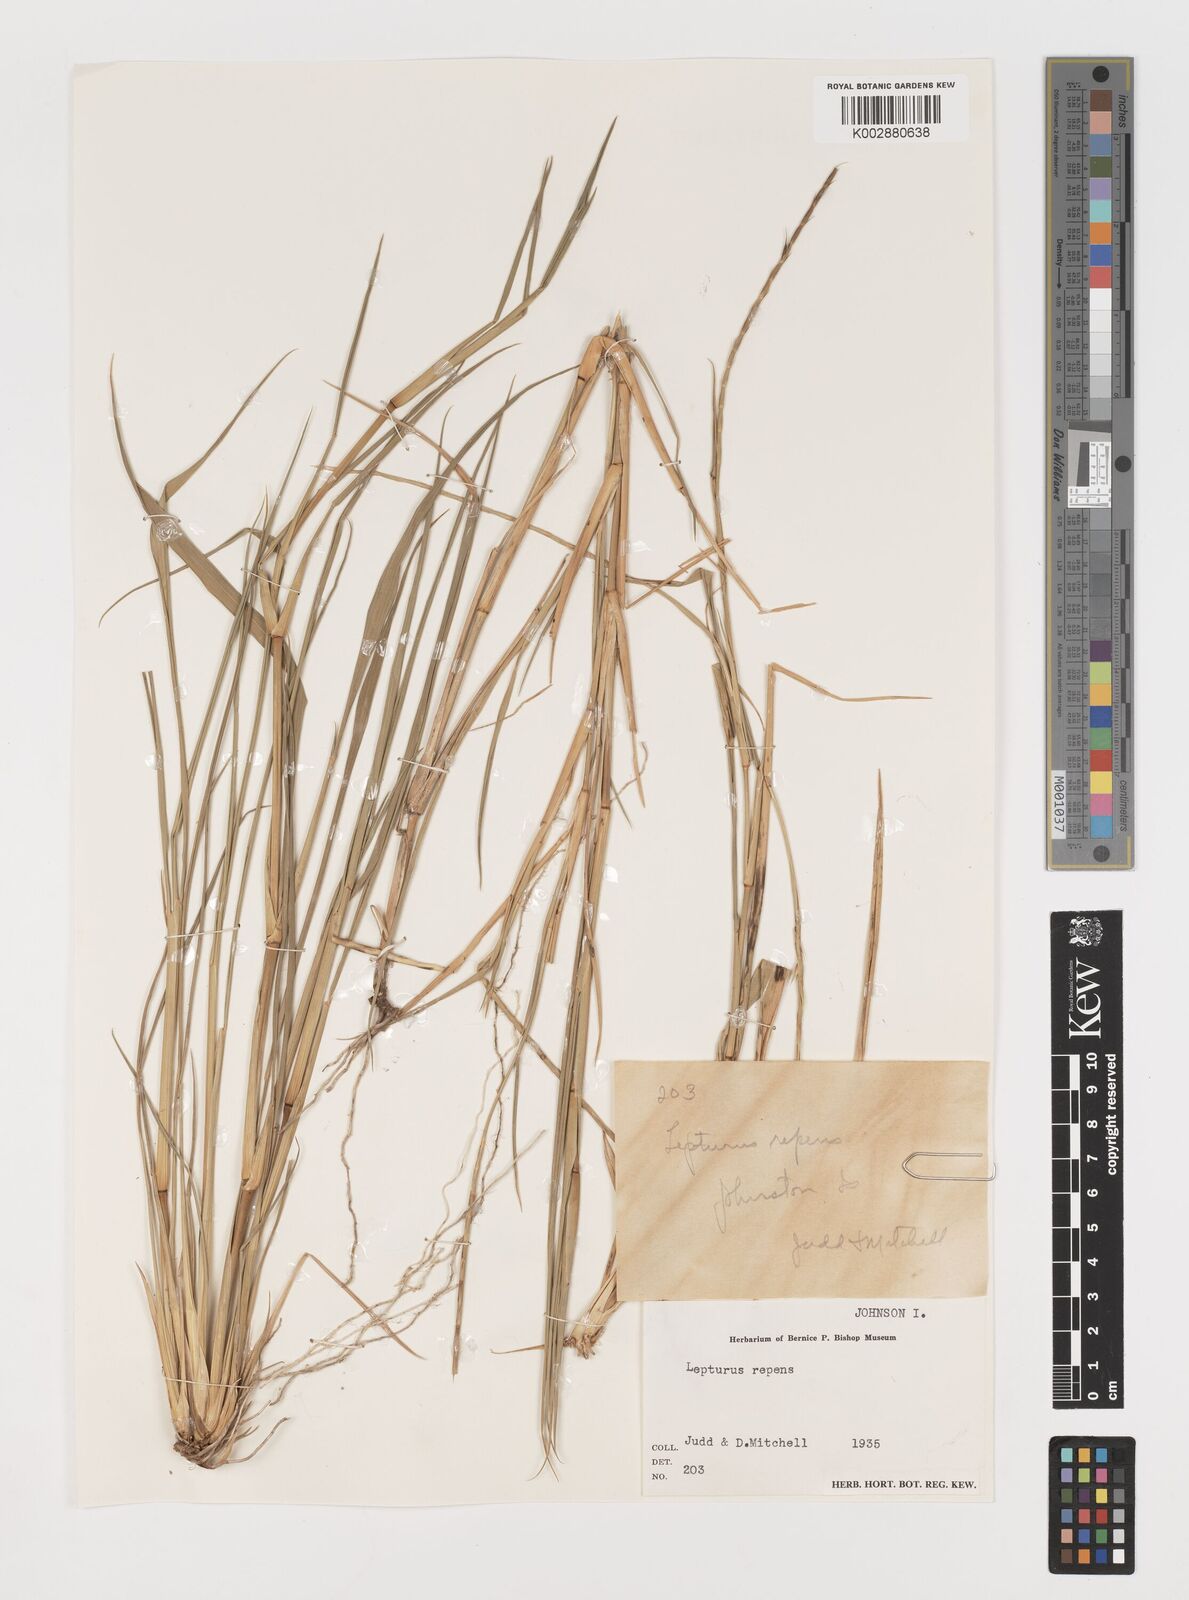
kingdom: Plantae
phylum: Tracheophyta
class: Liliopsida
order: Poales
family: Poaceae
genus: Lepturus
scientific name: Lepturus repens
